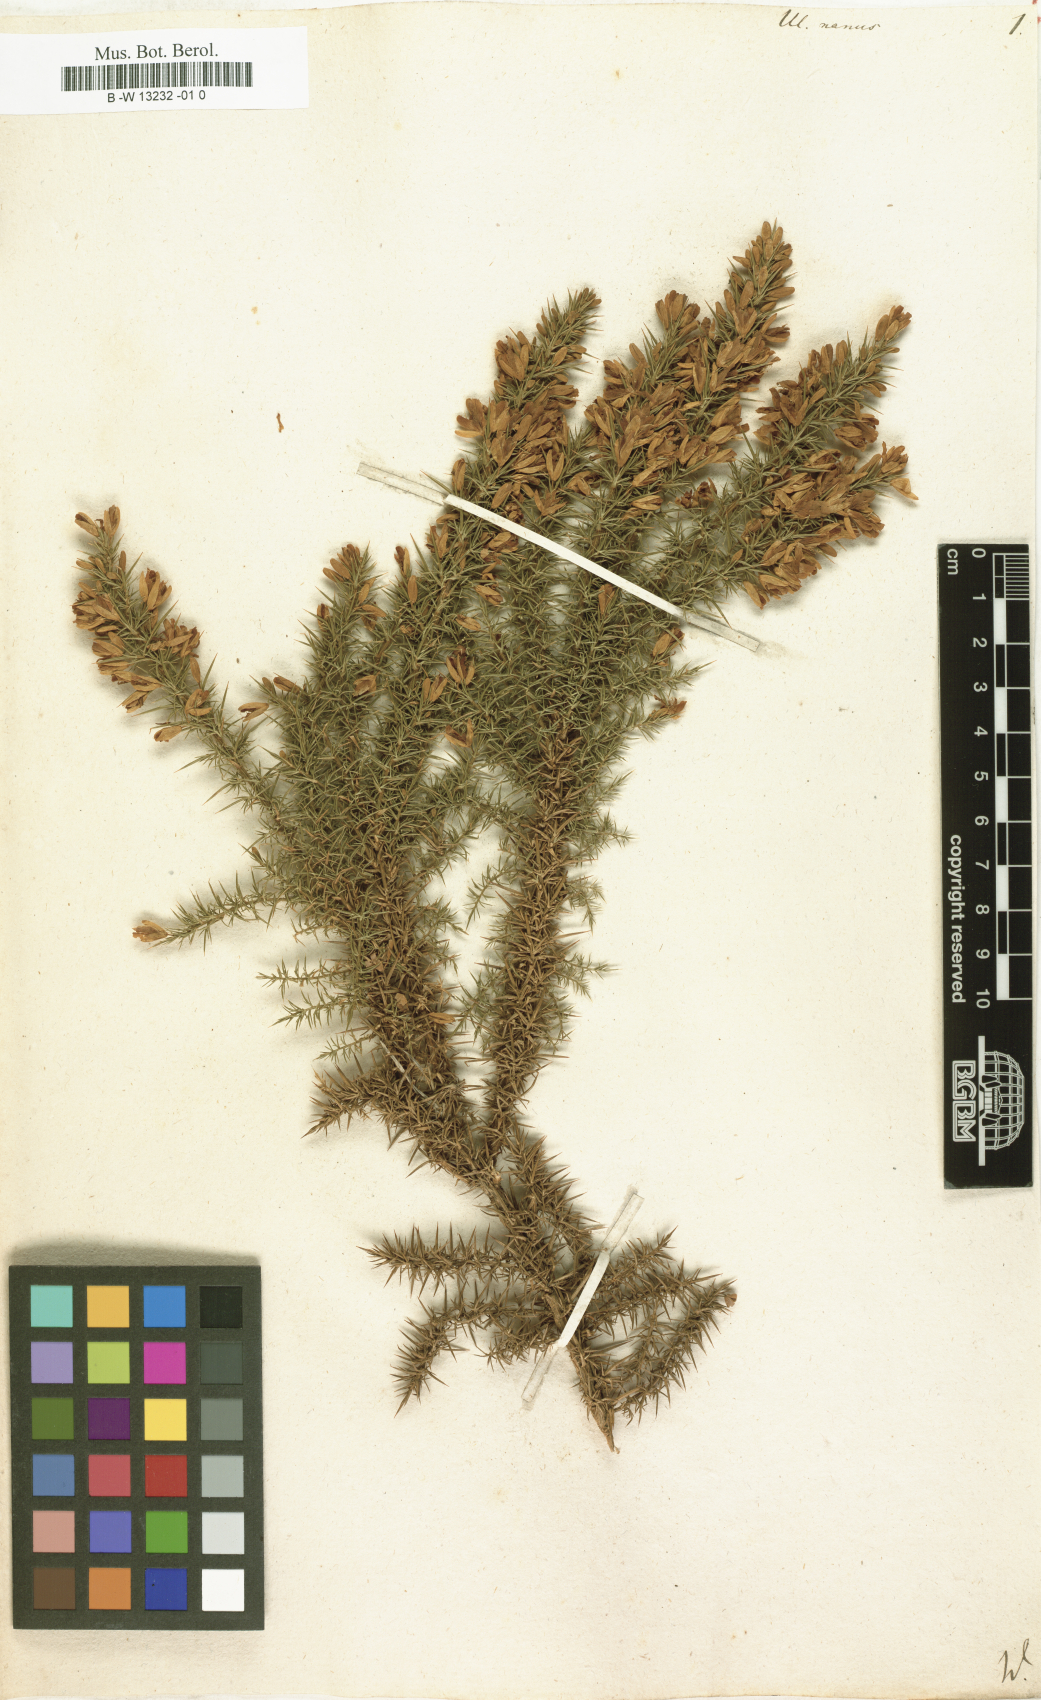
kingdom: Plantae
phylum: Tracheophyta
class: Magnoliopsida
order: Fabales
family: Fabaceae
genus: Ulex
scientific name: Ulex nanus
